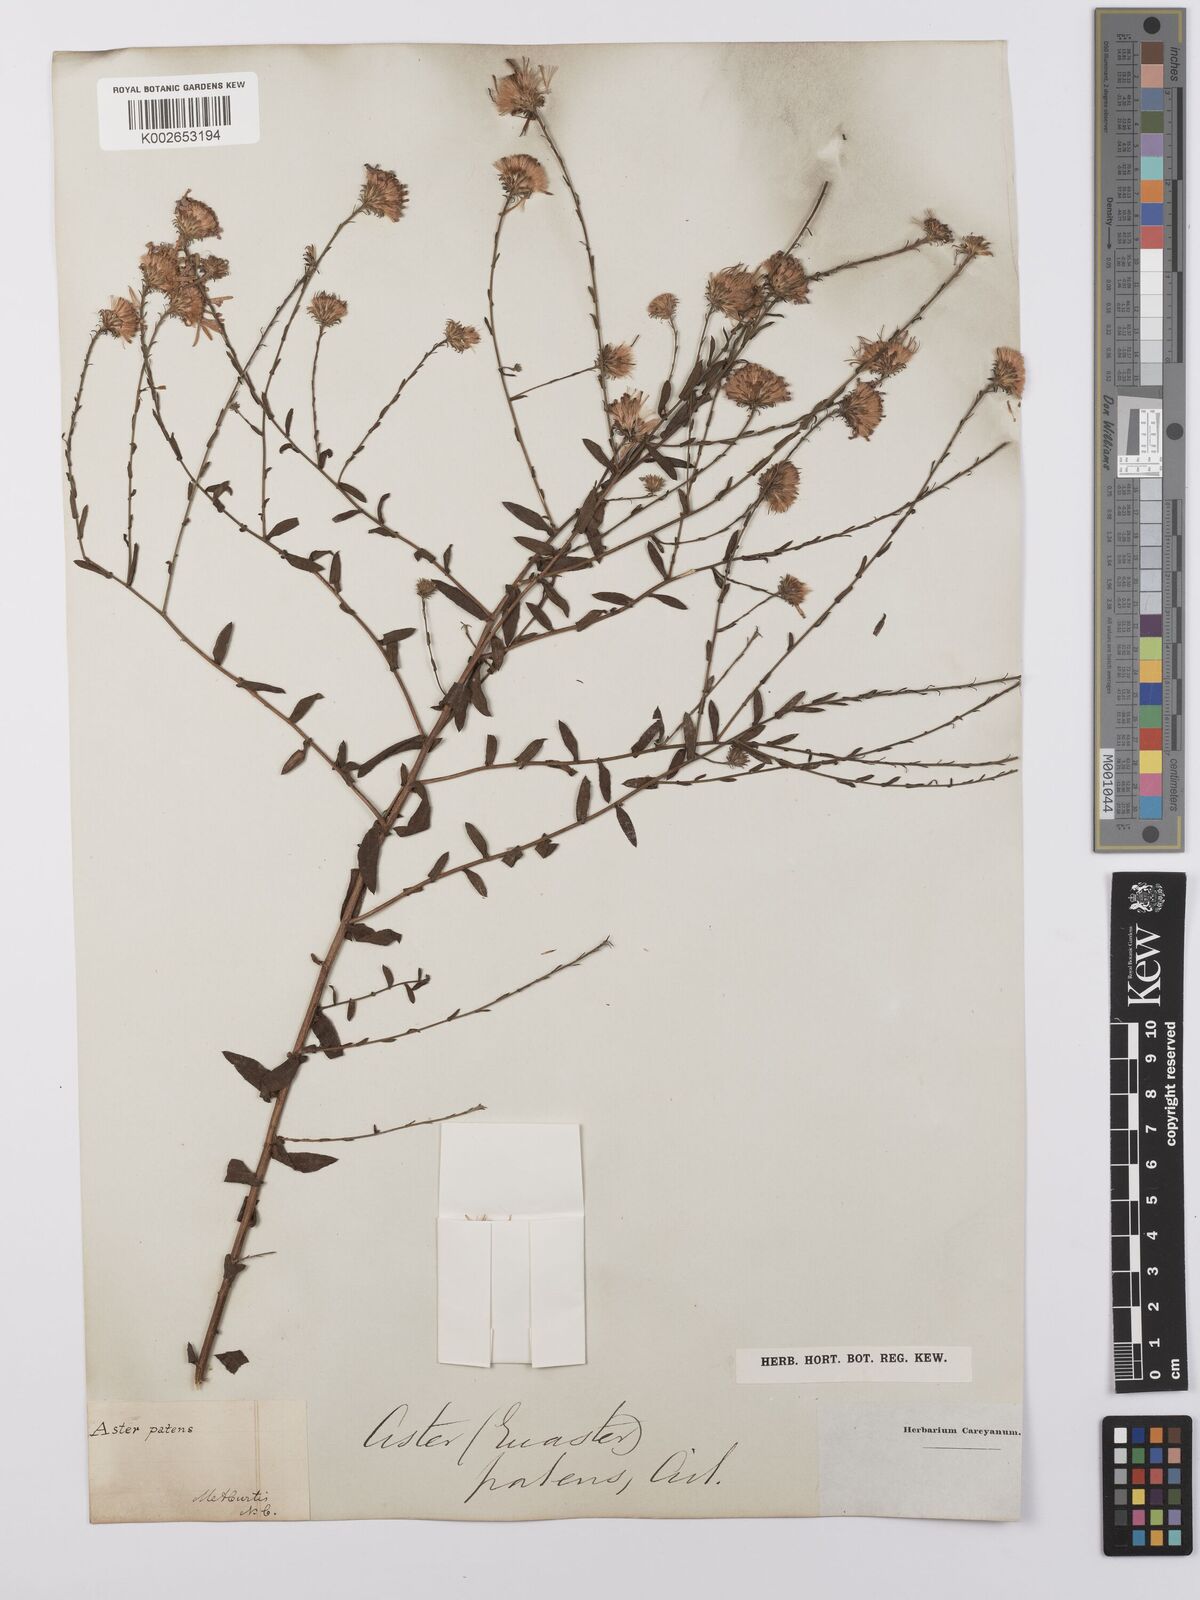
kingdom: Plantae
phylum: Tracheophyta
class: Magnoliopsida
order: Asterales
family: Asteraceae
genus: Symphyotrichum
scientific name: Symphyotrichum patens
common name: Late purple aster
